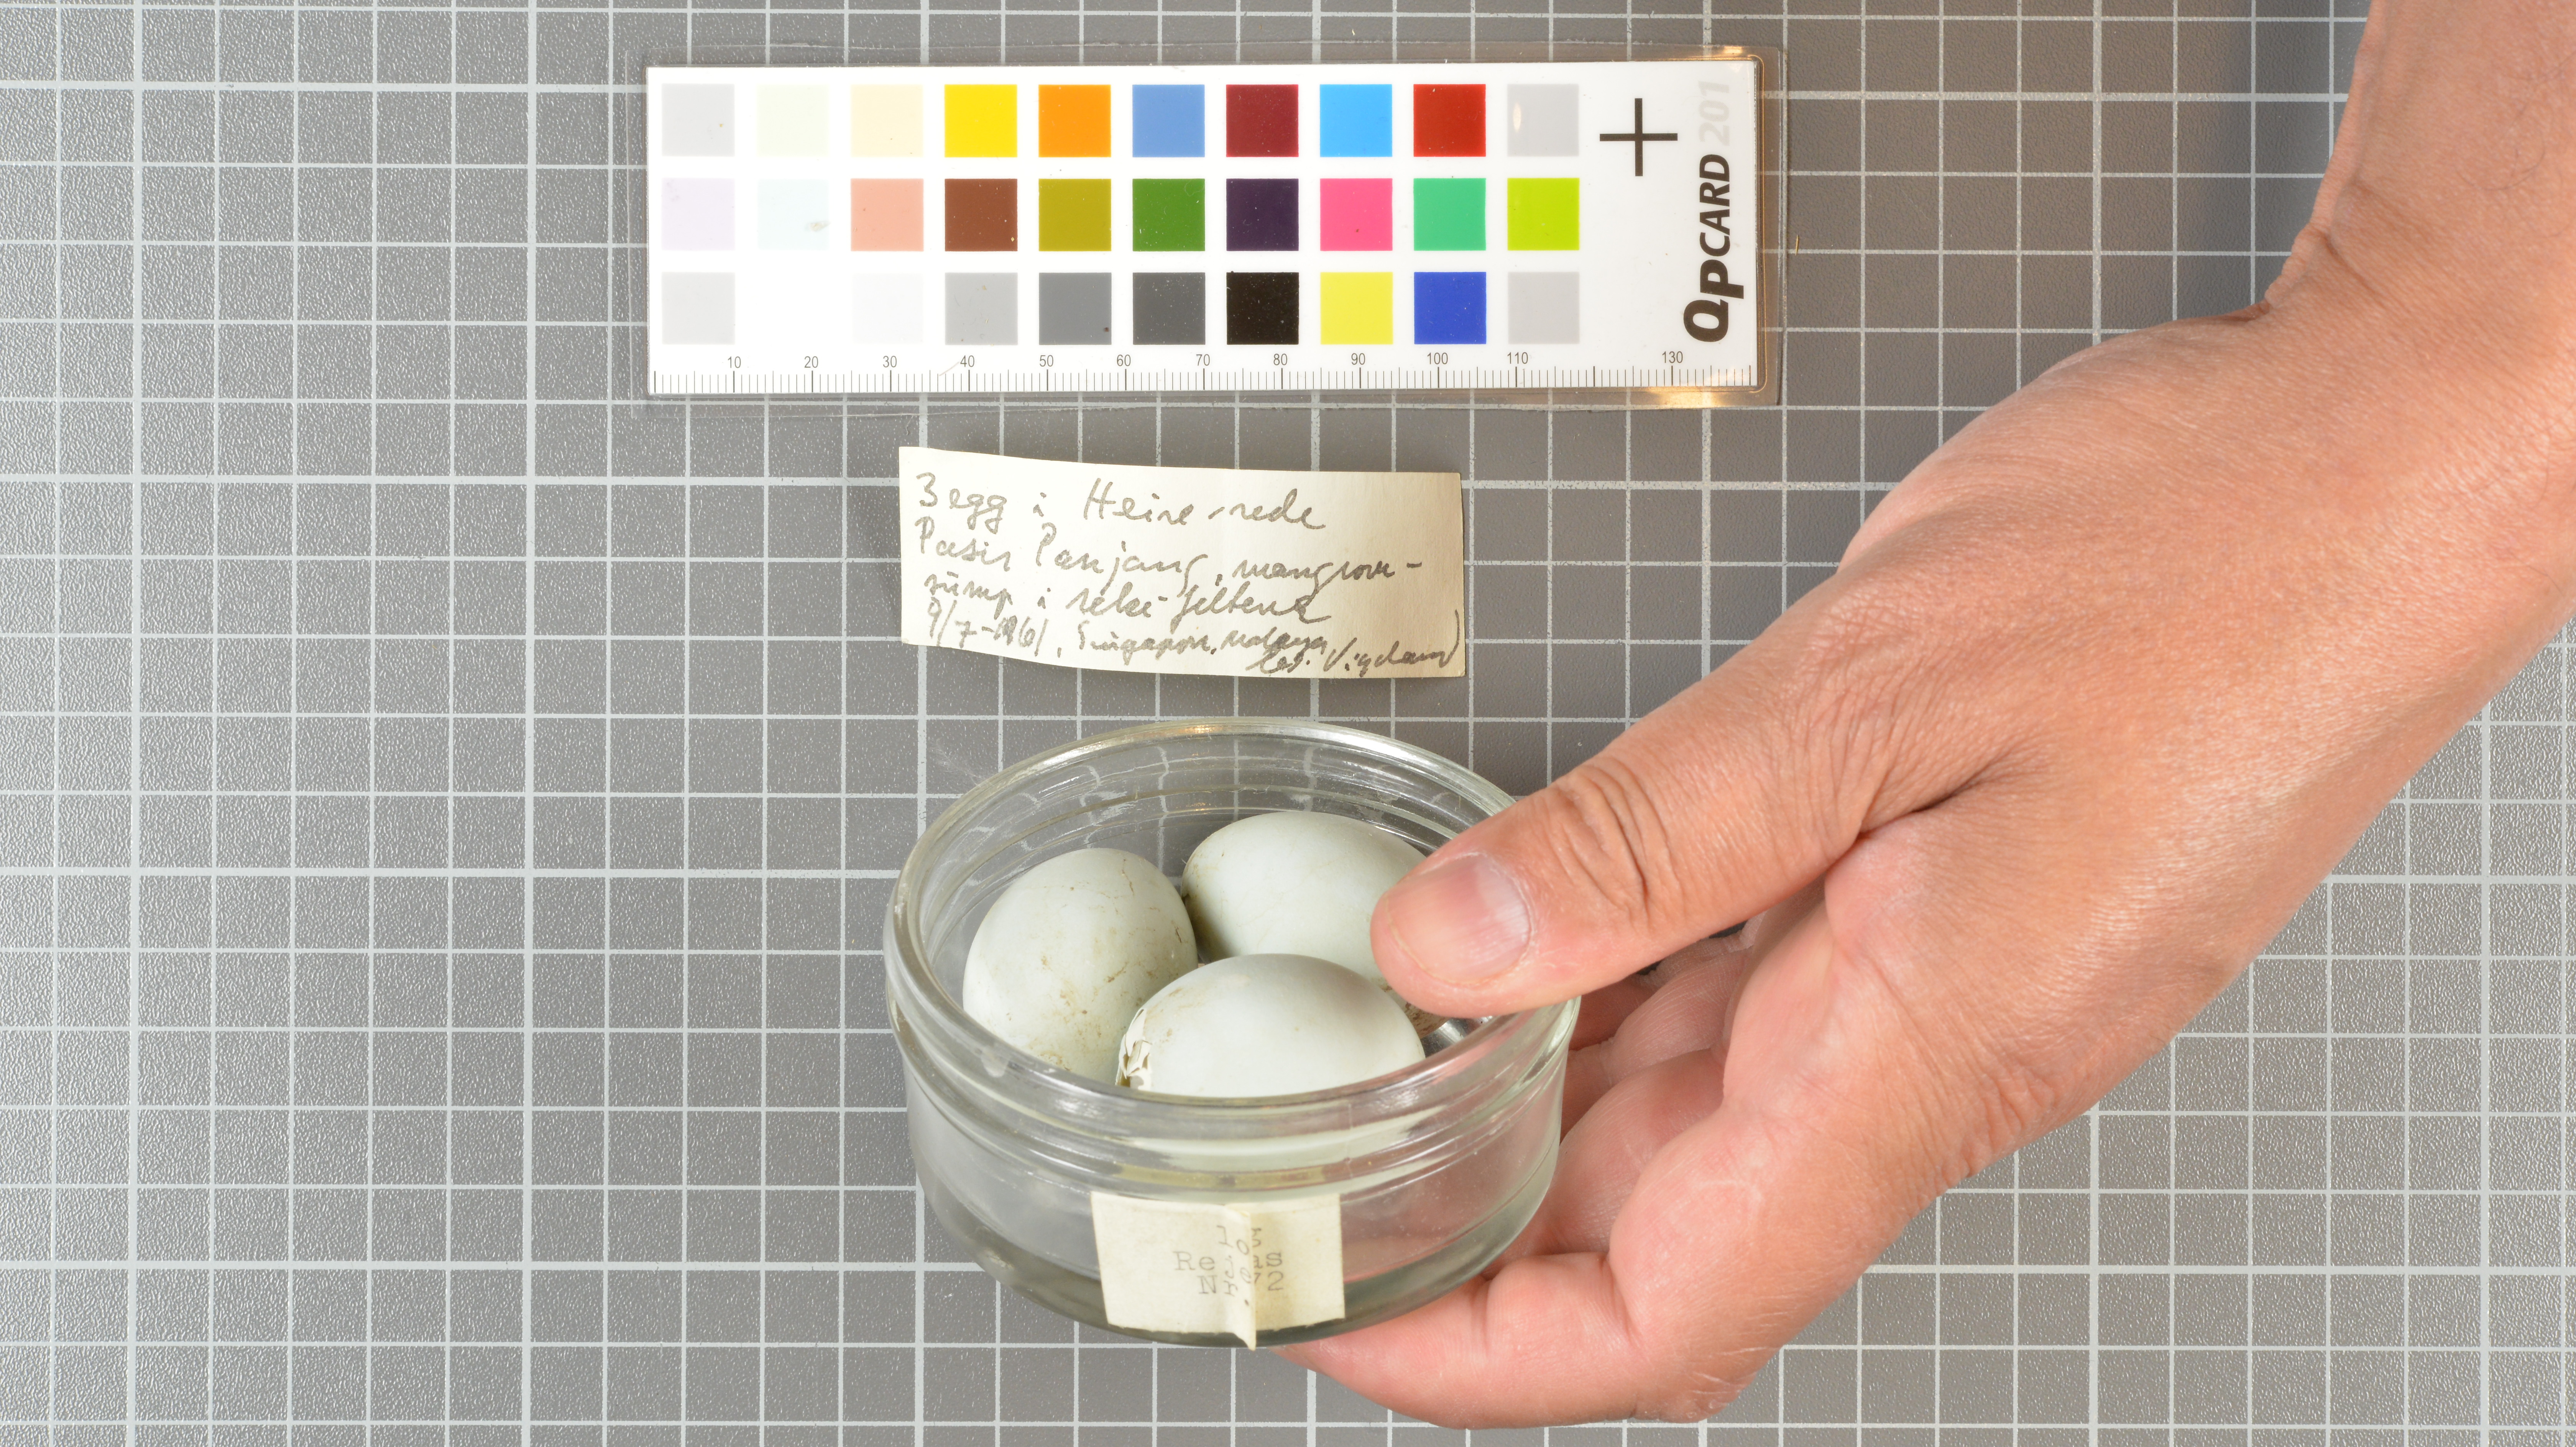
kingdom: Animalia
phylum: Chordata
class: Aves
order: Pelecaniformes
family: Ardeidae
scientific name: Ardeidae
